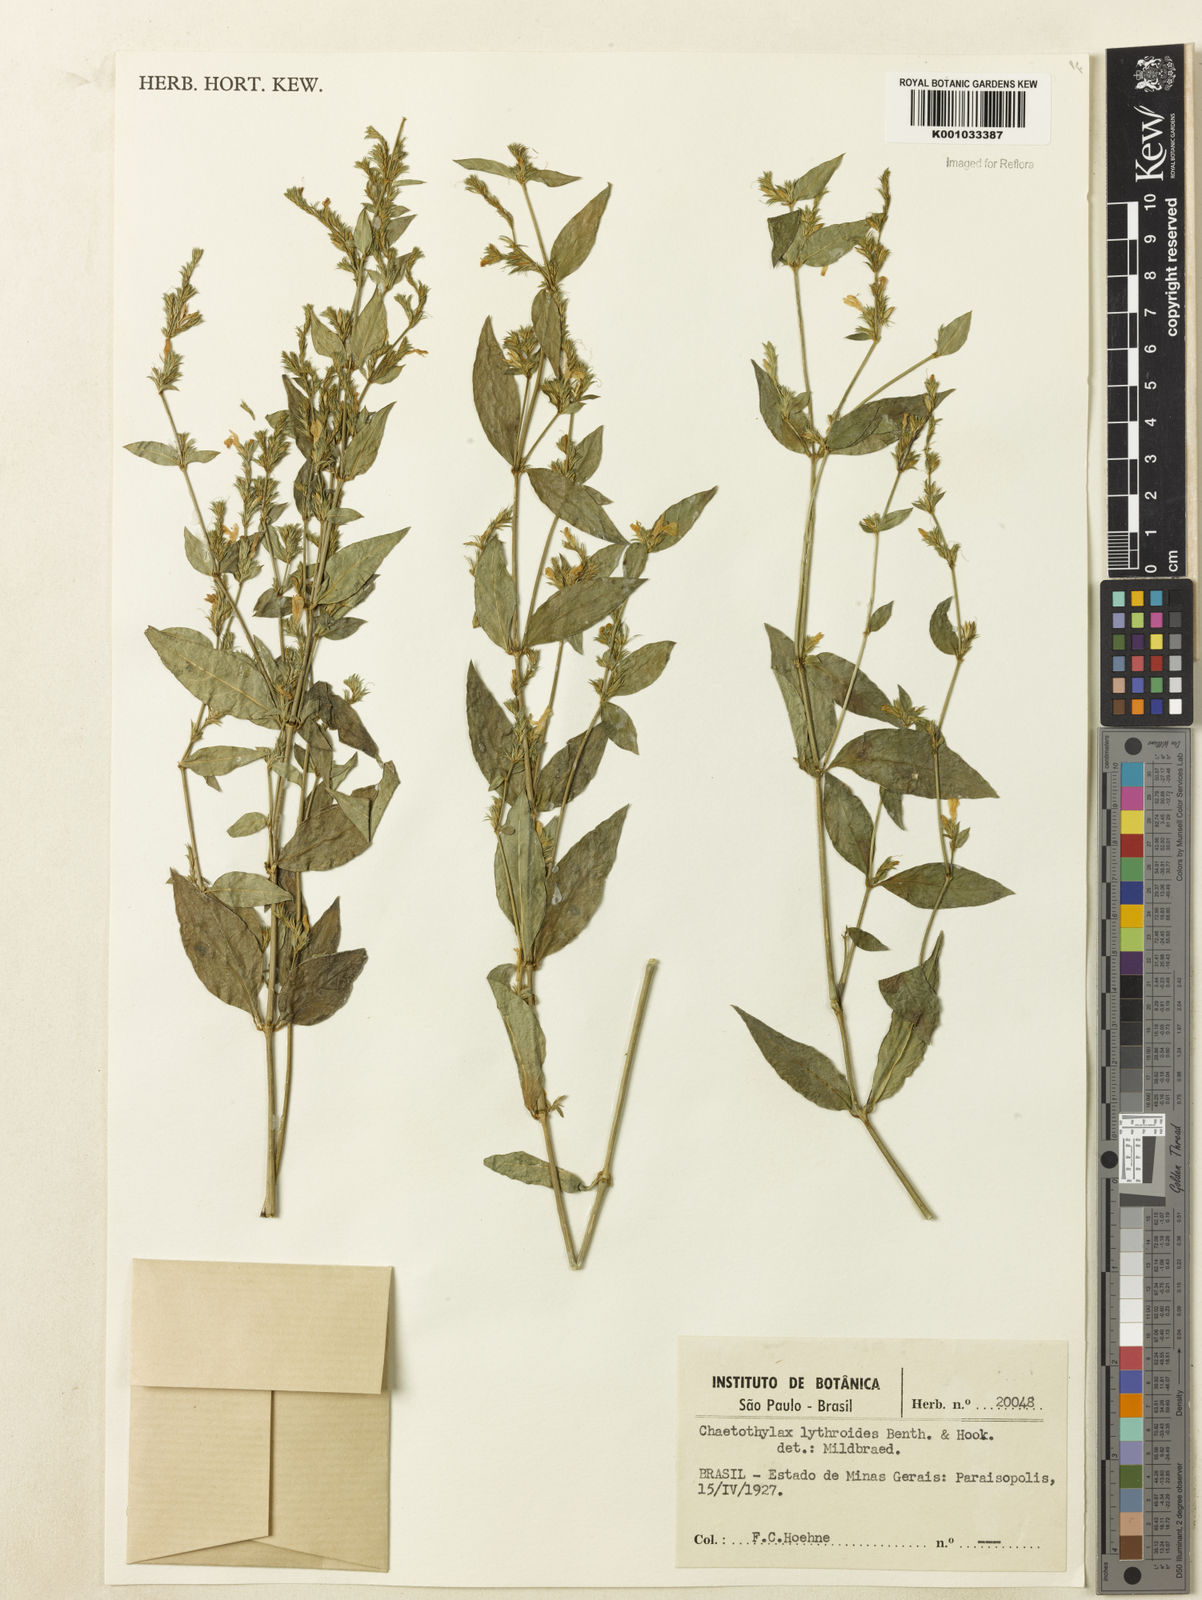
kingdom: Plantae
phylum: Tracheophyta
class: Magnoliopsida
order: Lamiales
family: Acanthaceae
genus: Justicia
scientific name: Justicia lythroides
